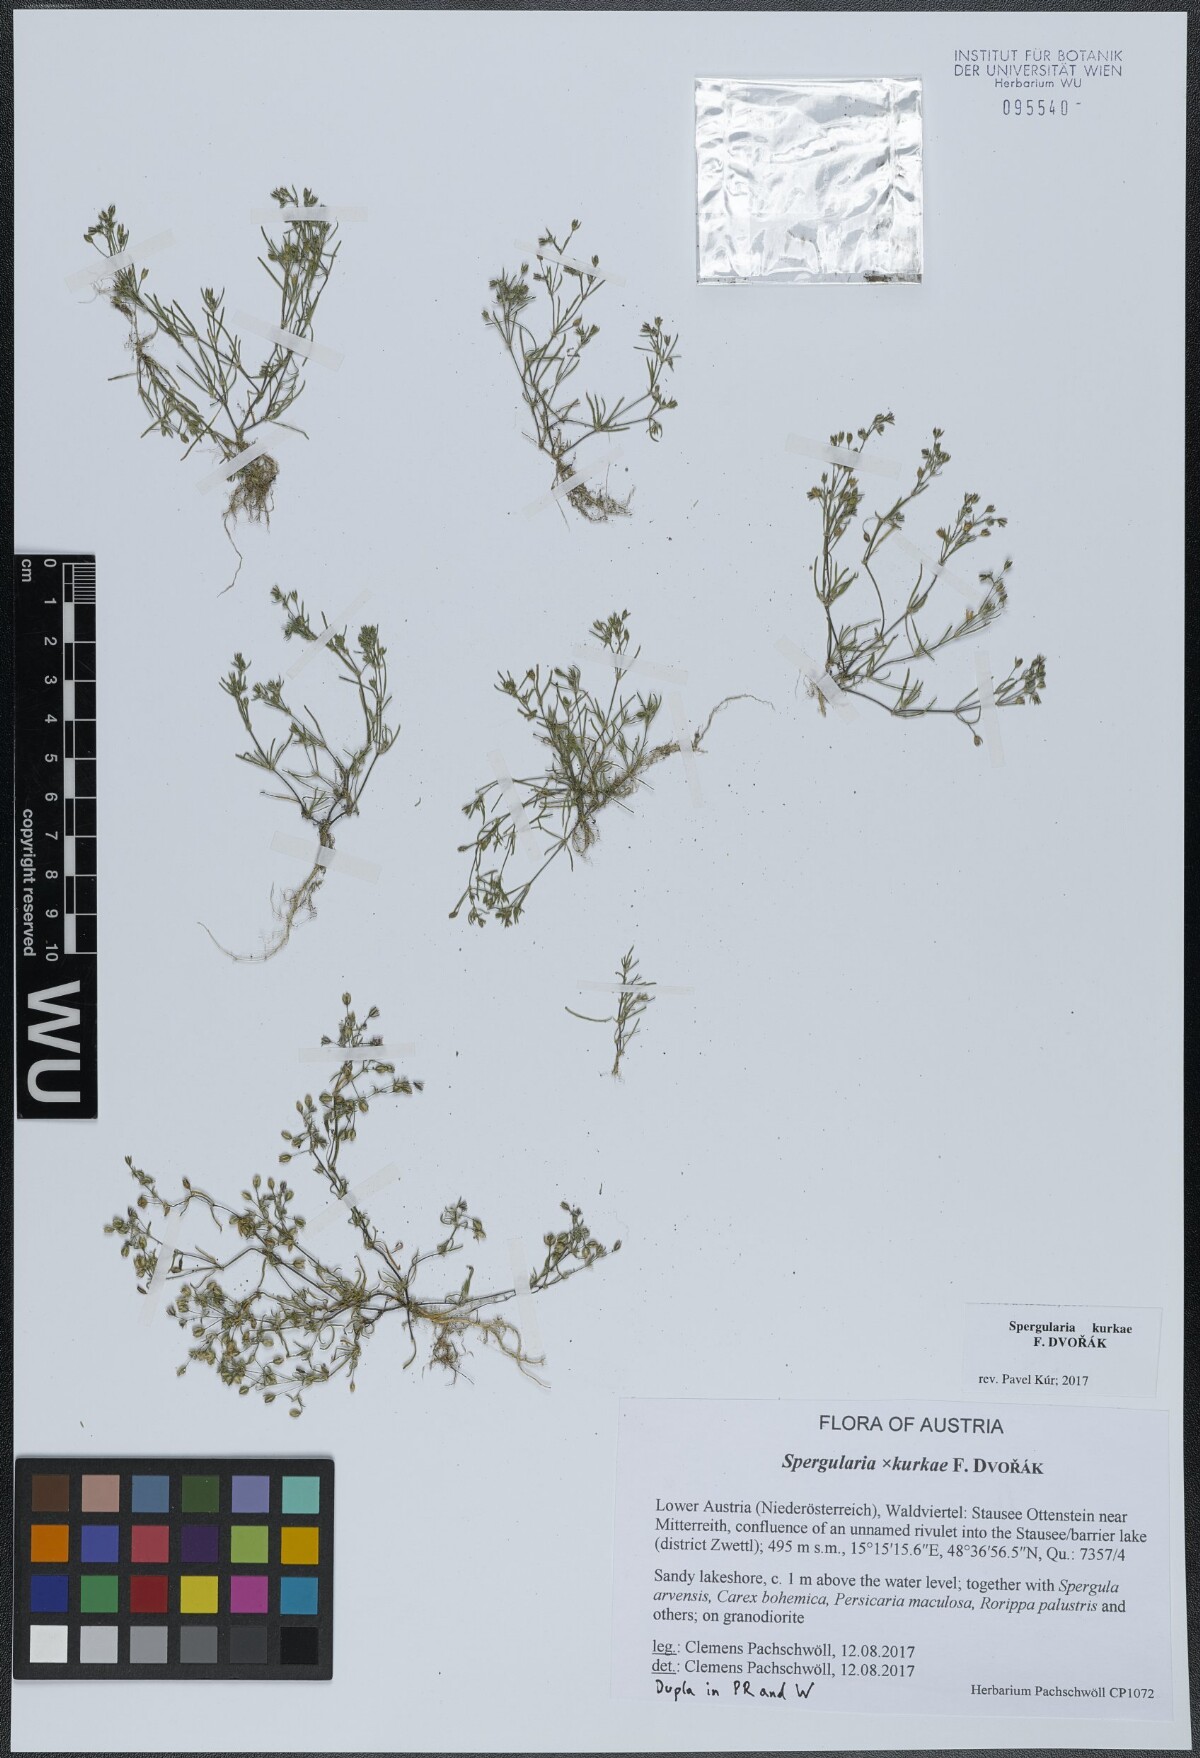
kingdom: Plantae
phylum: Tracheophyta
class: Magnoliopsida
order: Caryophyllales
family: Caryophyllaceae
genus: Spergularia
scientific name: Spergularia kurkae
